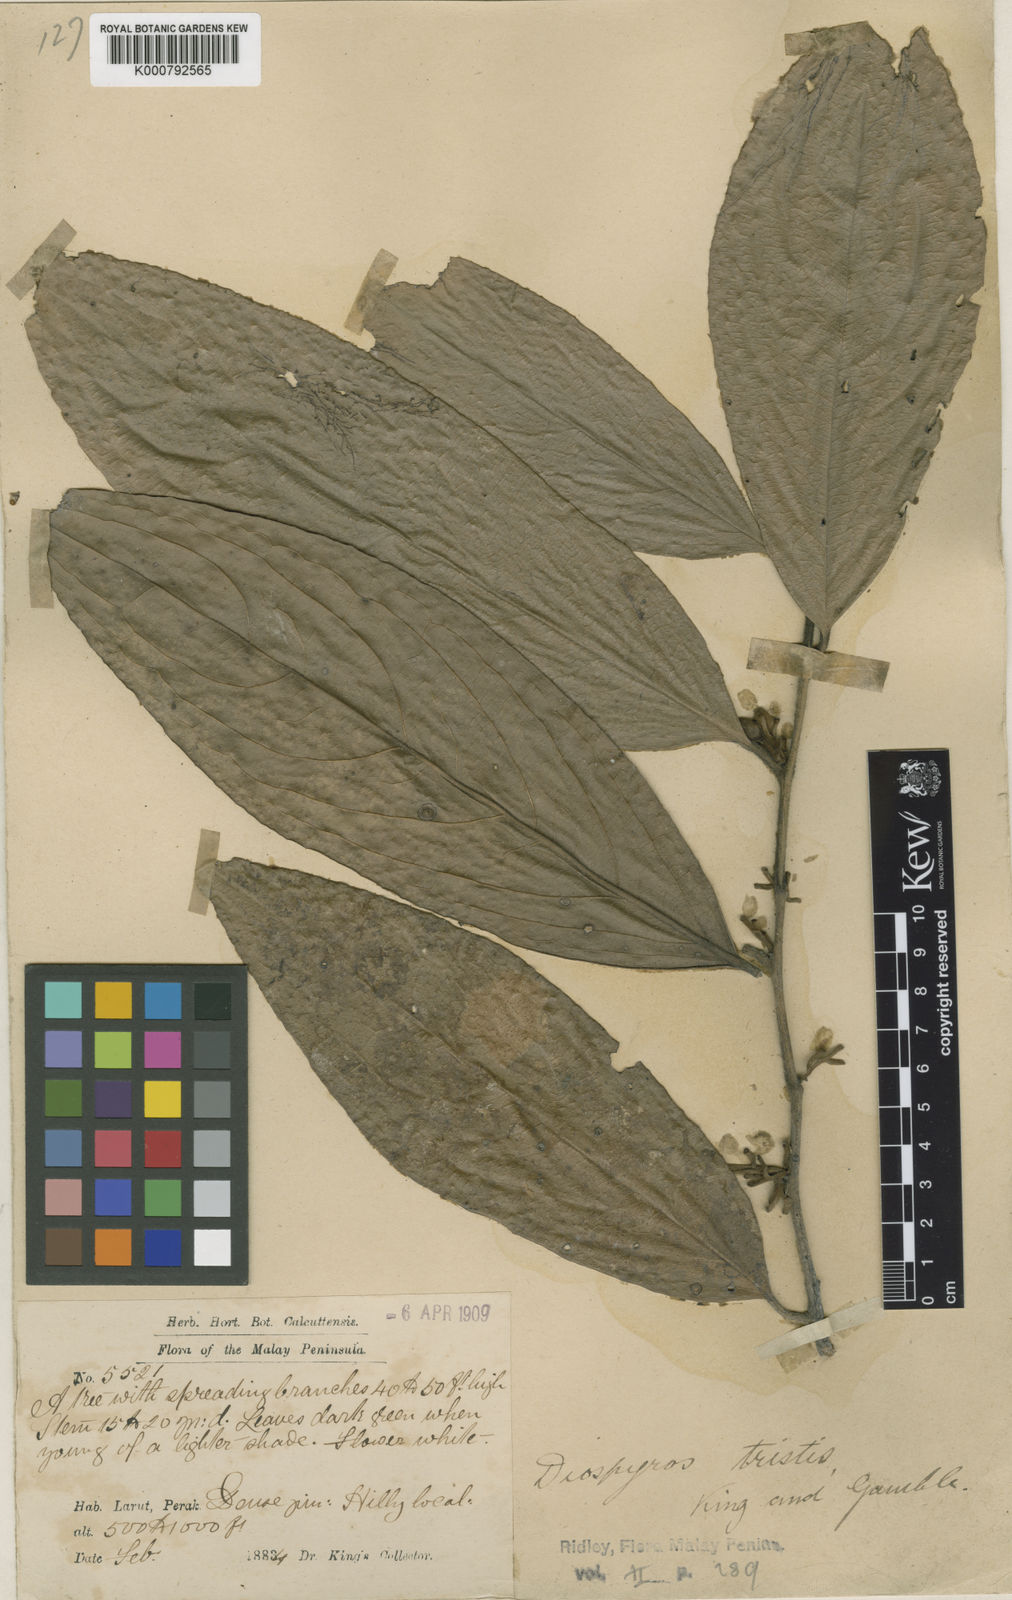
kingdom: Plantae
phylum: Tracheophyta
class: Magnoliopsida
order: Ericales
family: Ebenaceae
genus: Diospyros
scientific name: Diospyros tristis
